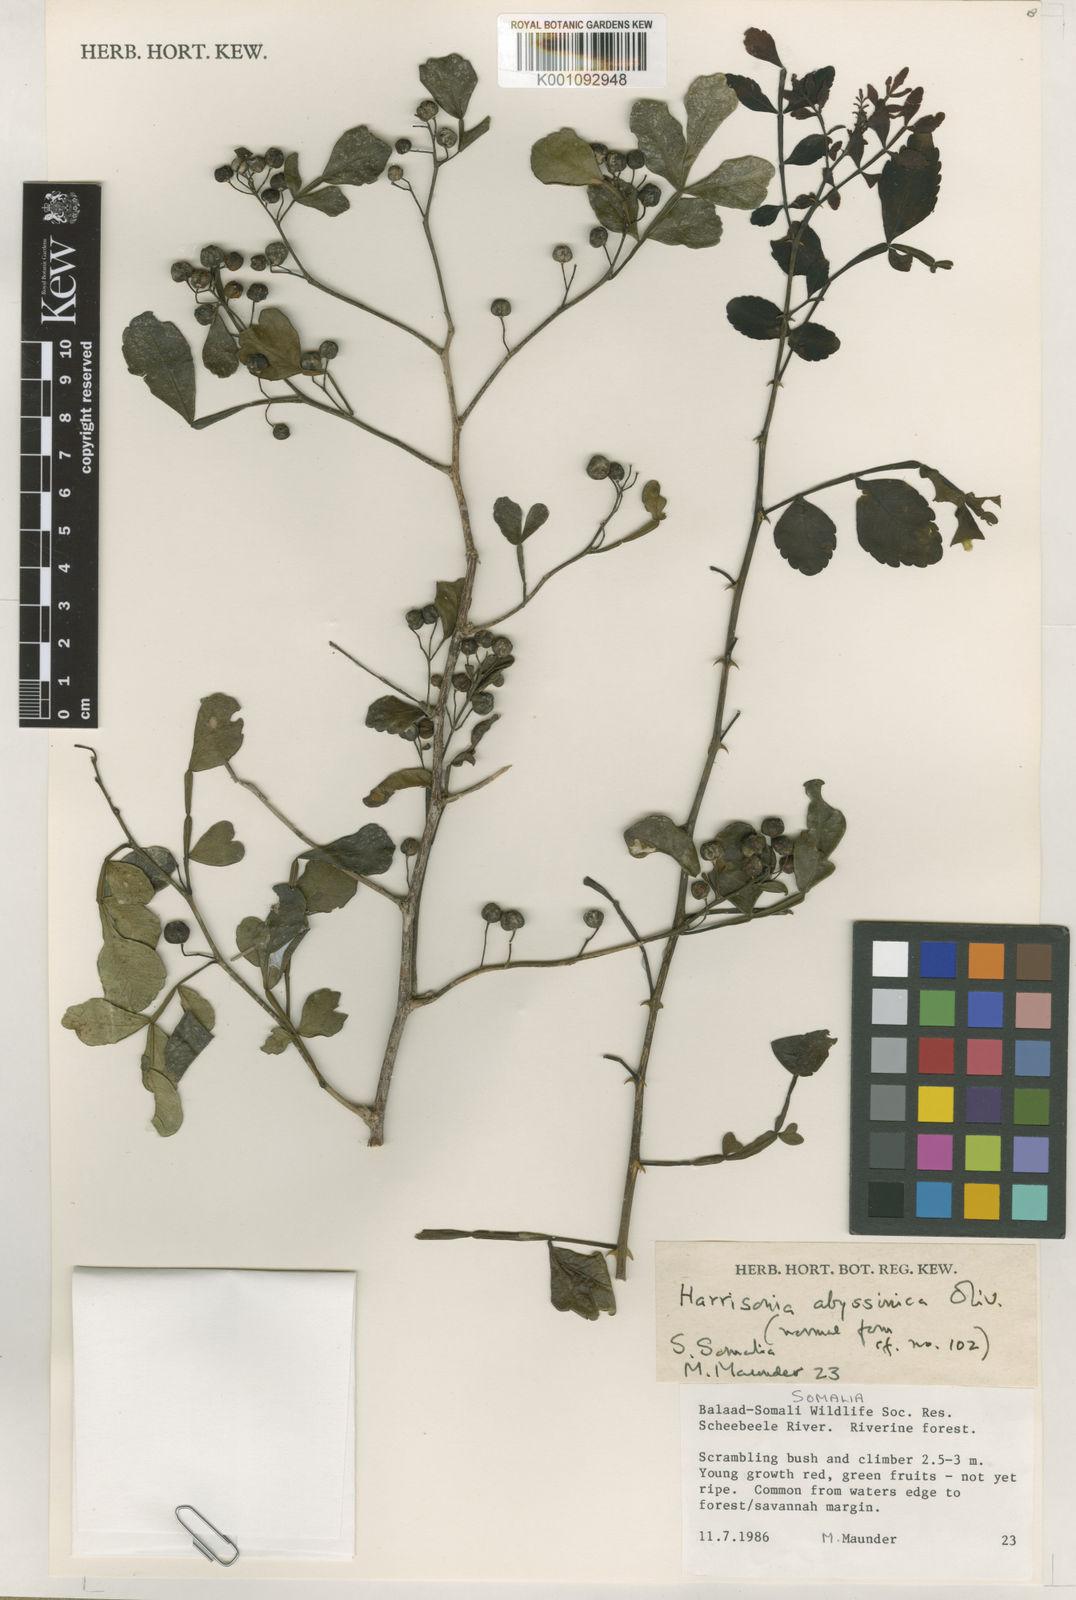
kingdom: Plantae
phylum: Tracheophyta
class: Magnoliopsida
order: Sapindales
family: Rutaceae
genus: Harrisonia
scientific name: Harrisonia abyssinica
